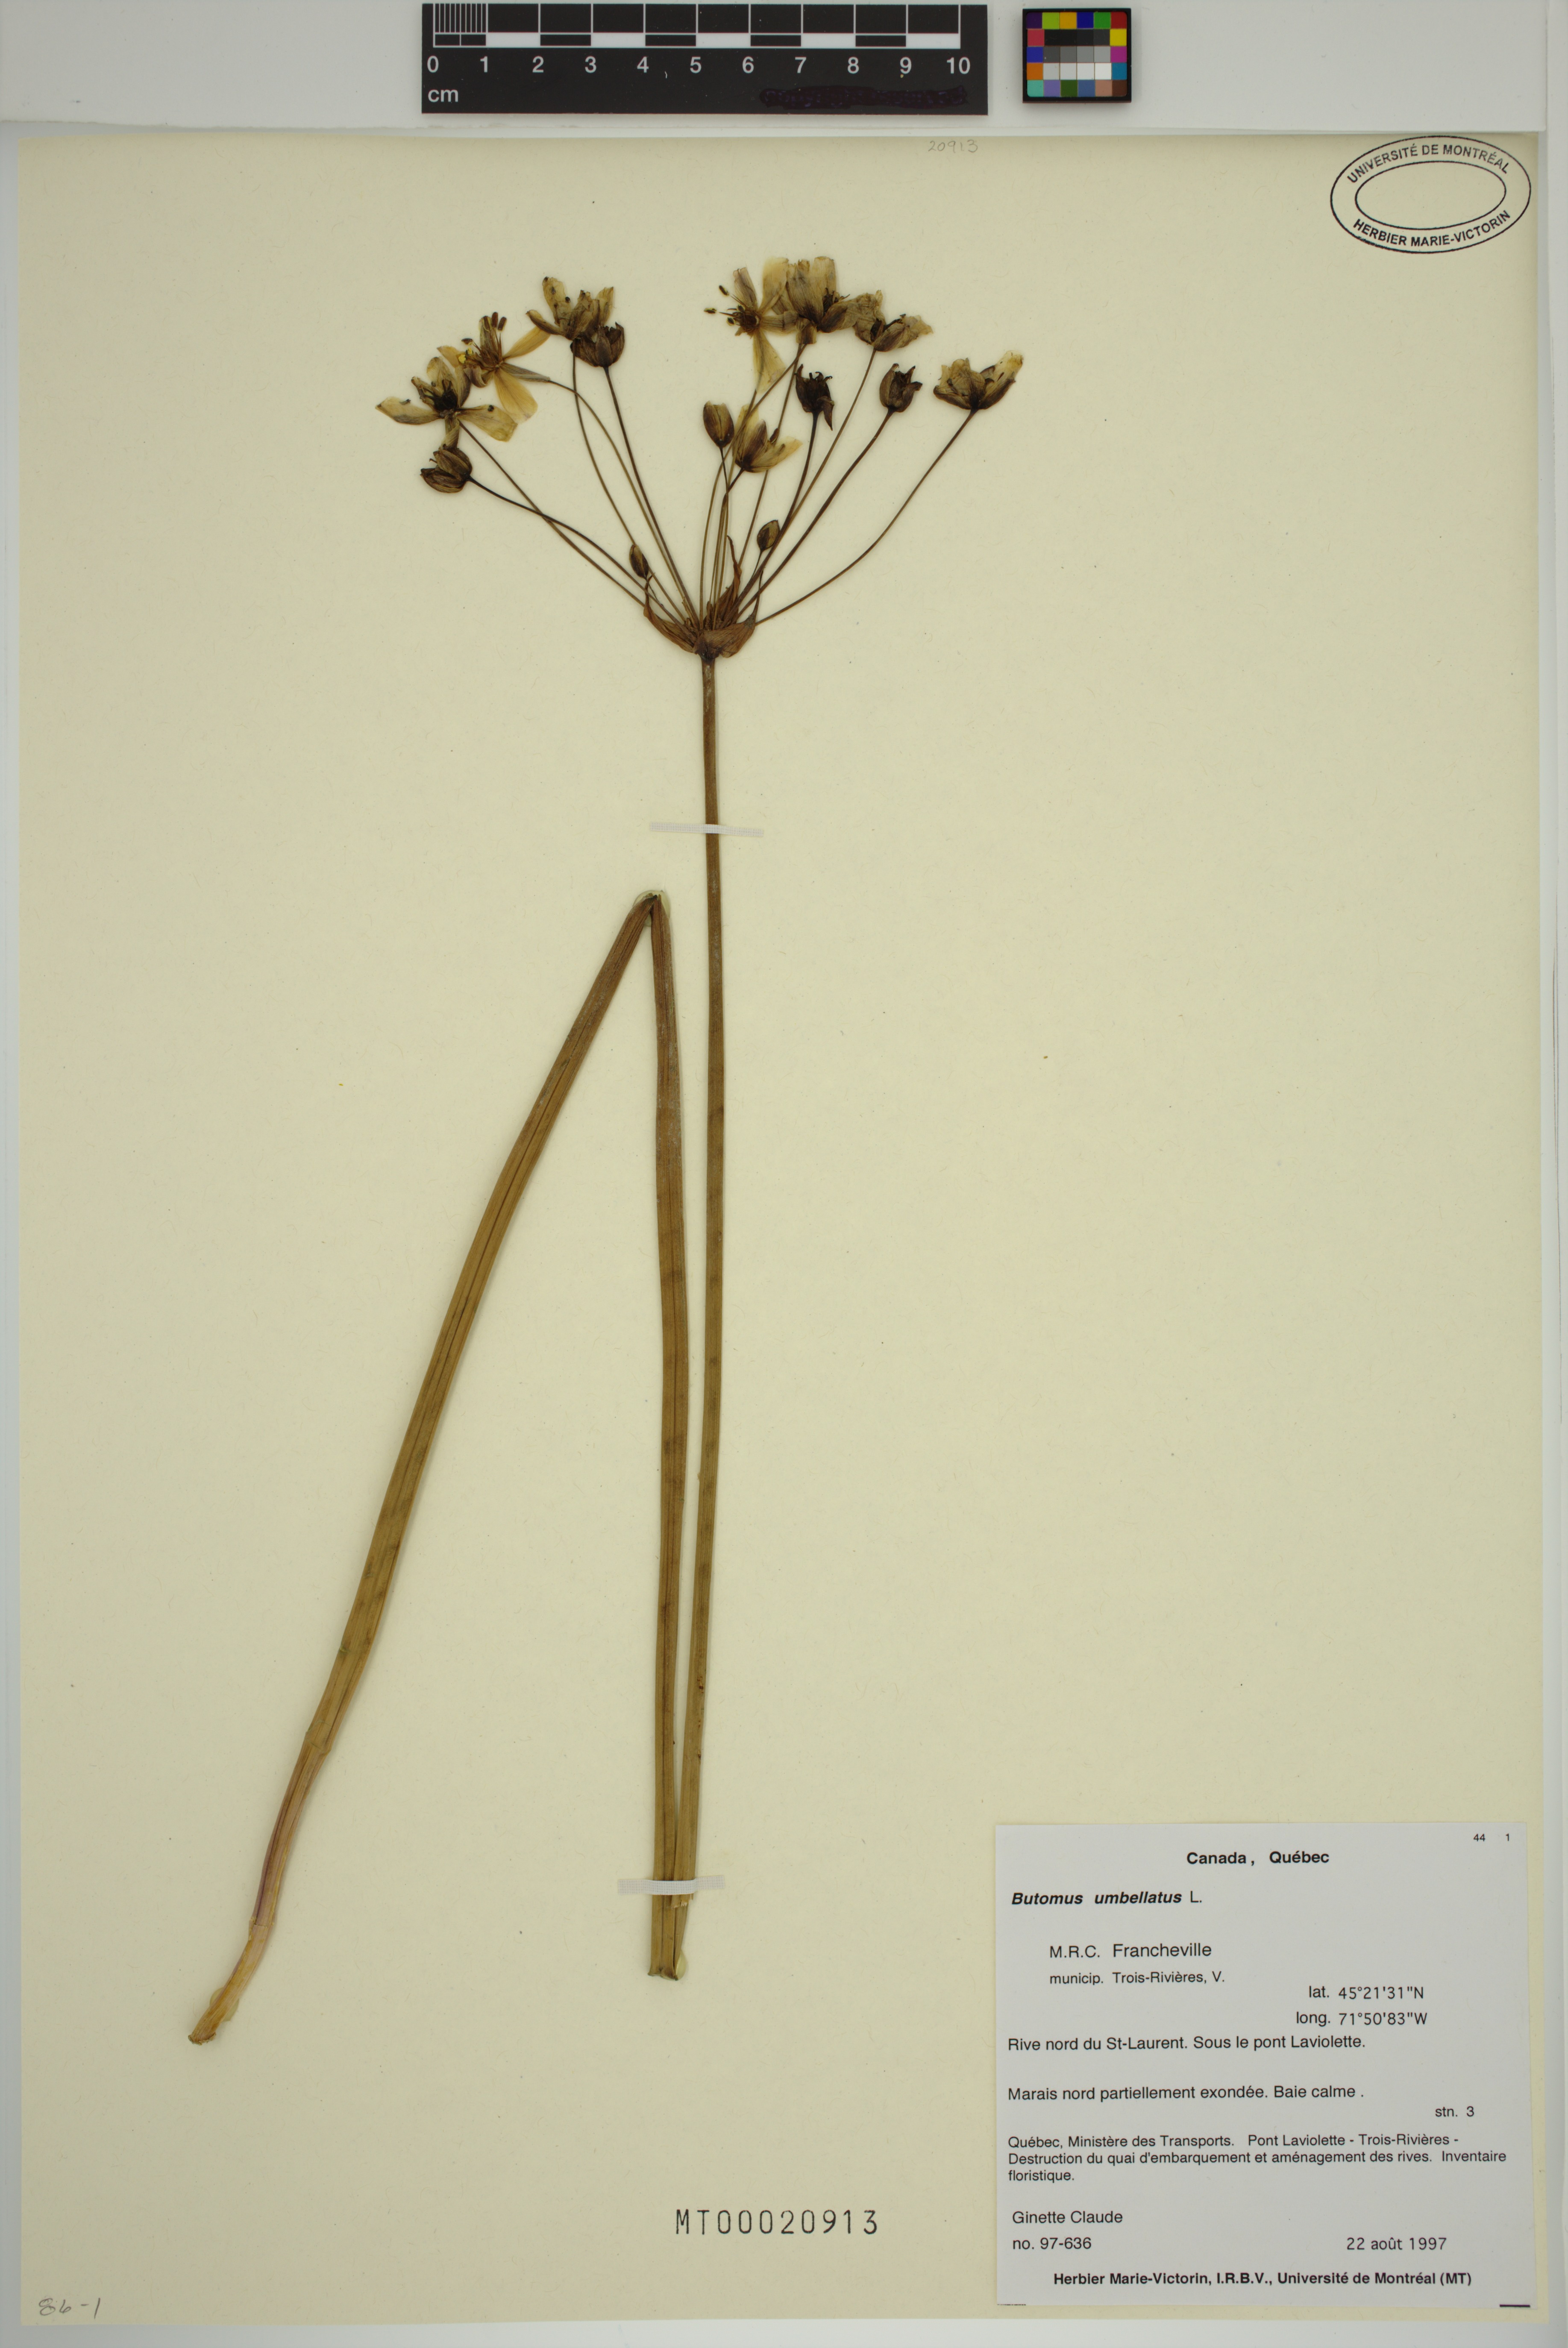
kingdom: Plantae
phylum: Tracheophyta
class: Liliopsida
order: Alismatales
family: Butomaceae
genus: Butomus
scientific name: Butomus umbellatus
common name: Flowering-rush
